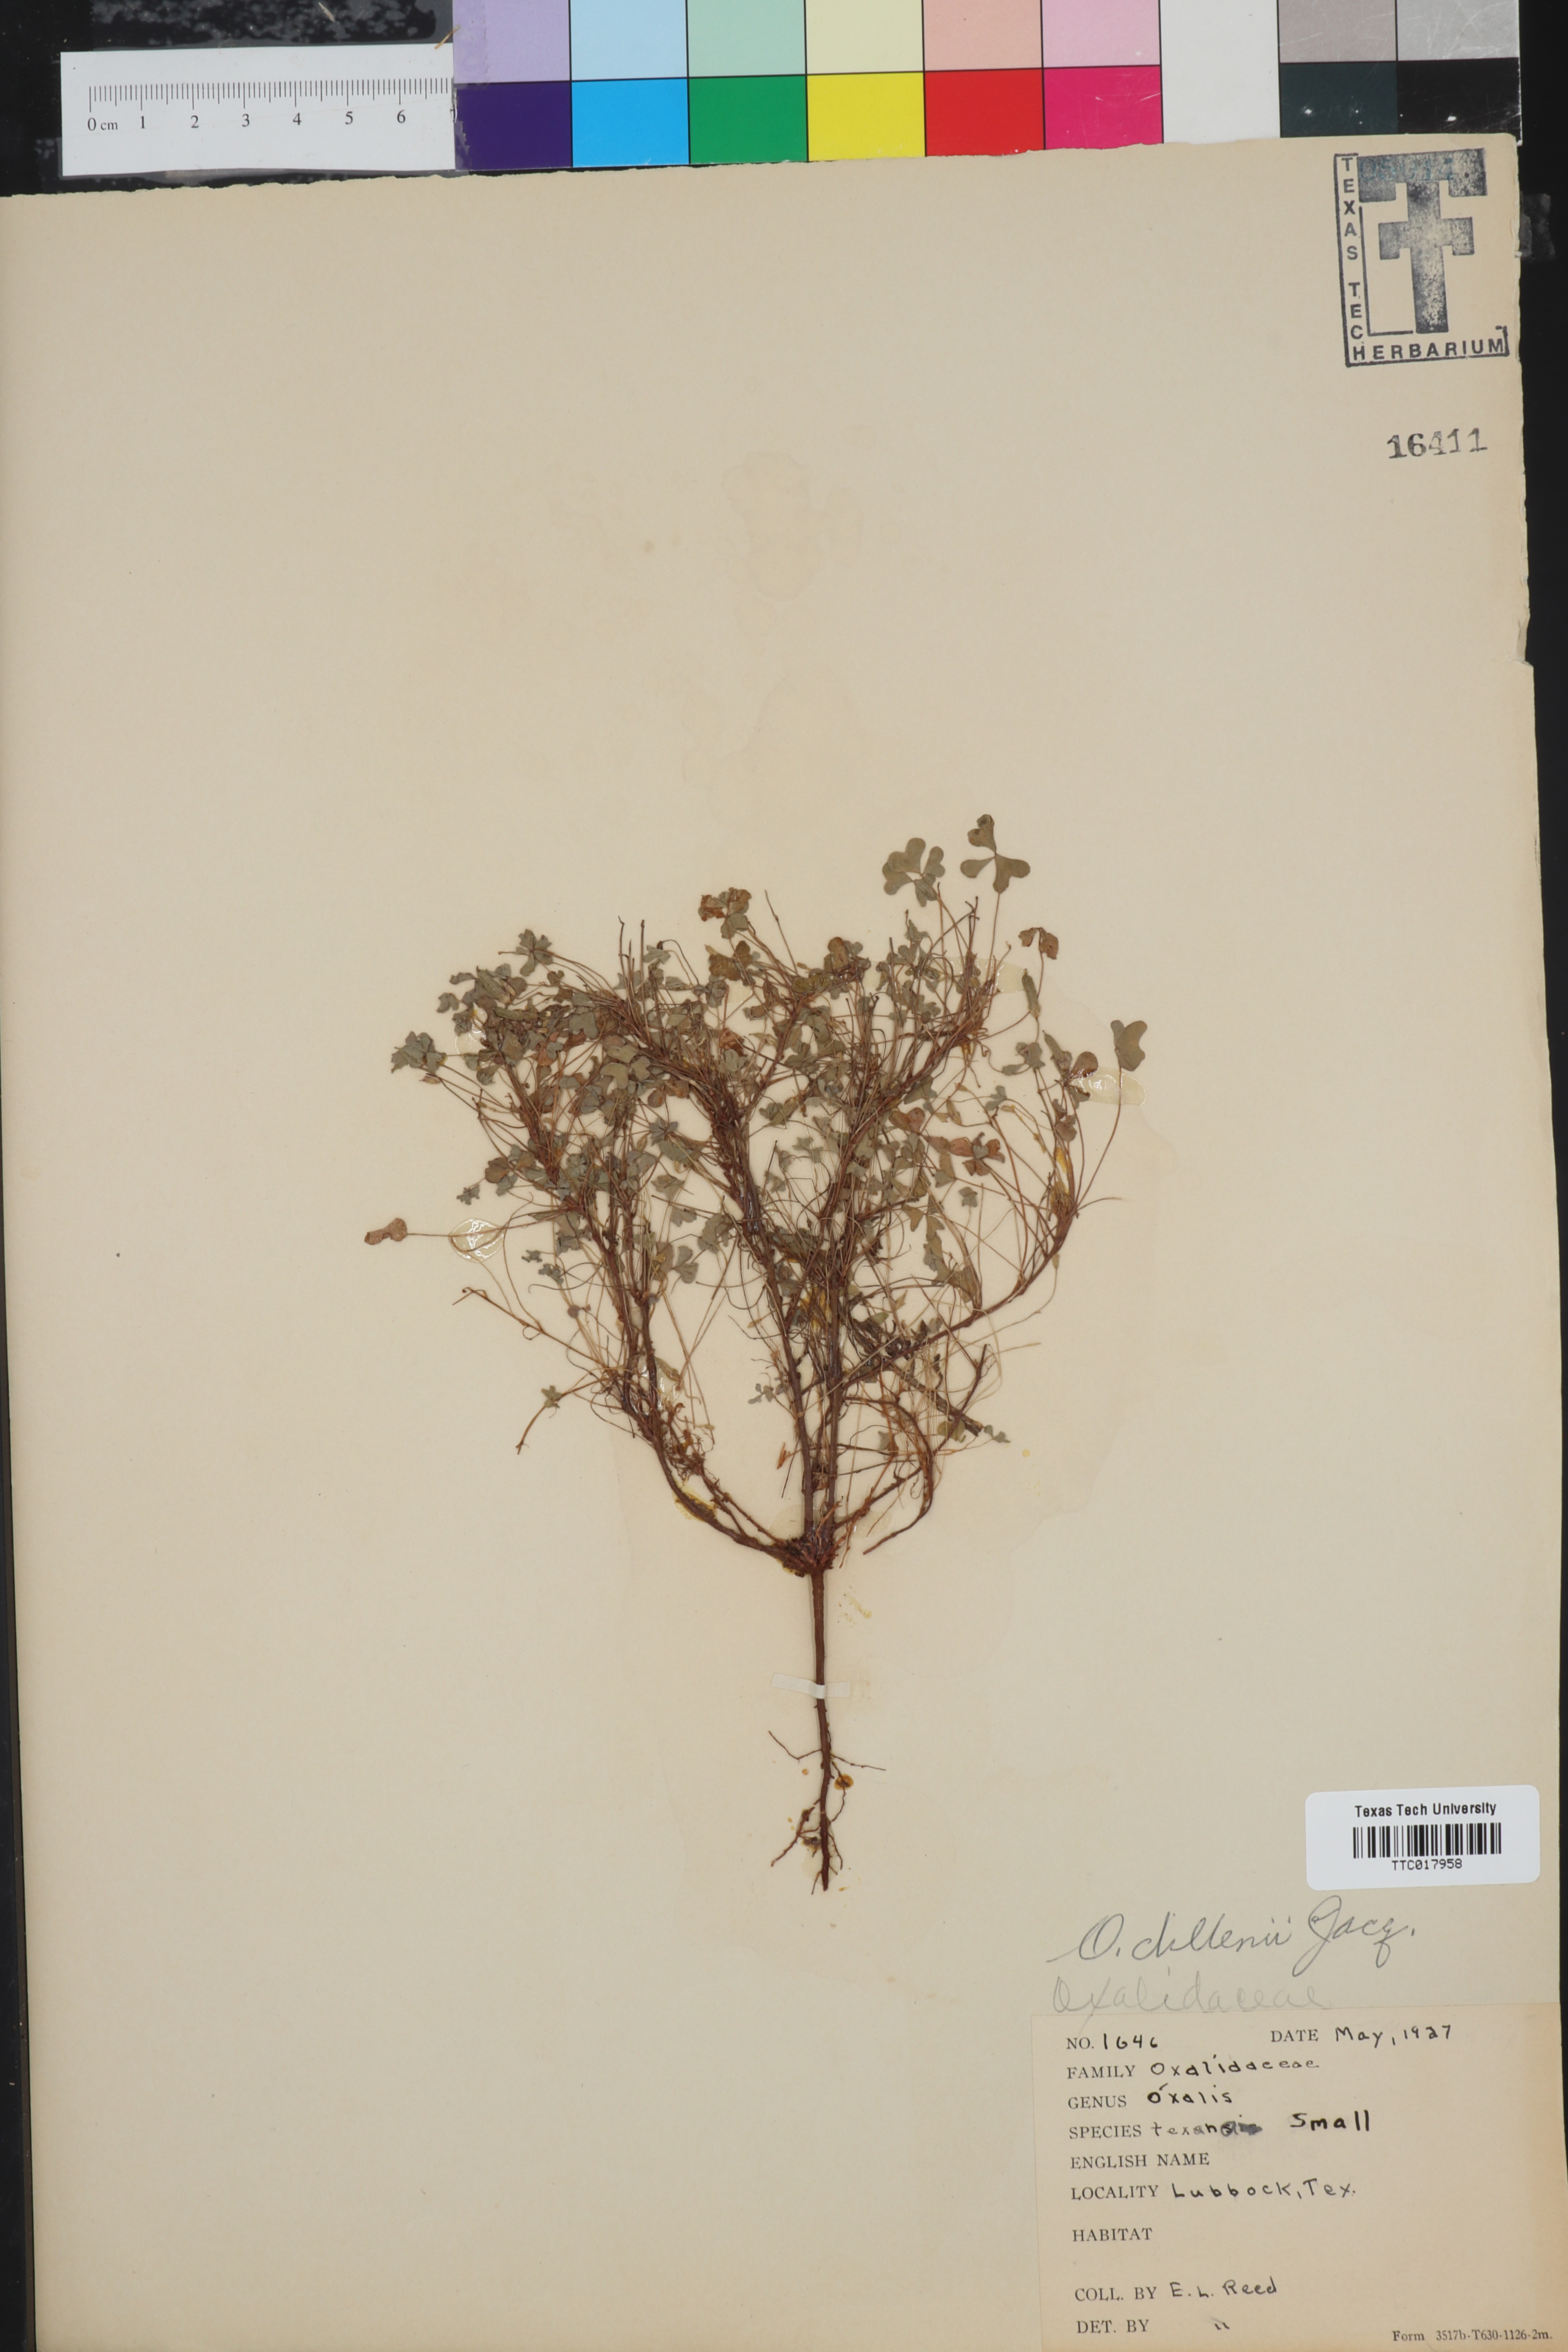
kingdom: Plantae
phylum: Tracheophyta
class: Magnoliopsida
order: Oxalidales
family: Oxalidaceae
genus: Oxalis
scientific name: Oxalis dillenii
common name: Sussex yellow-sorrel
